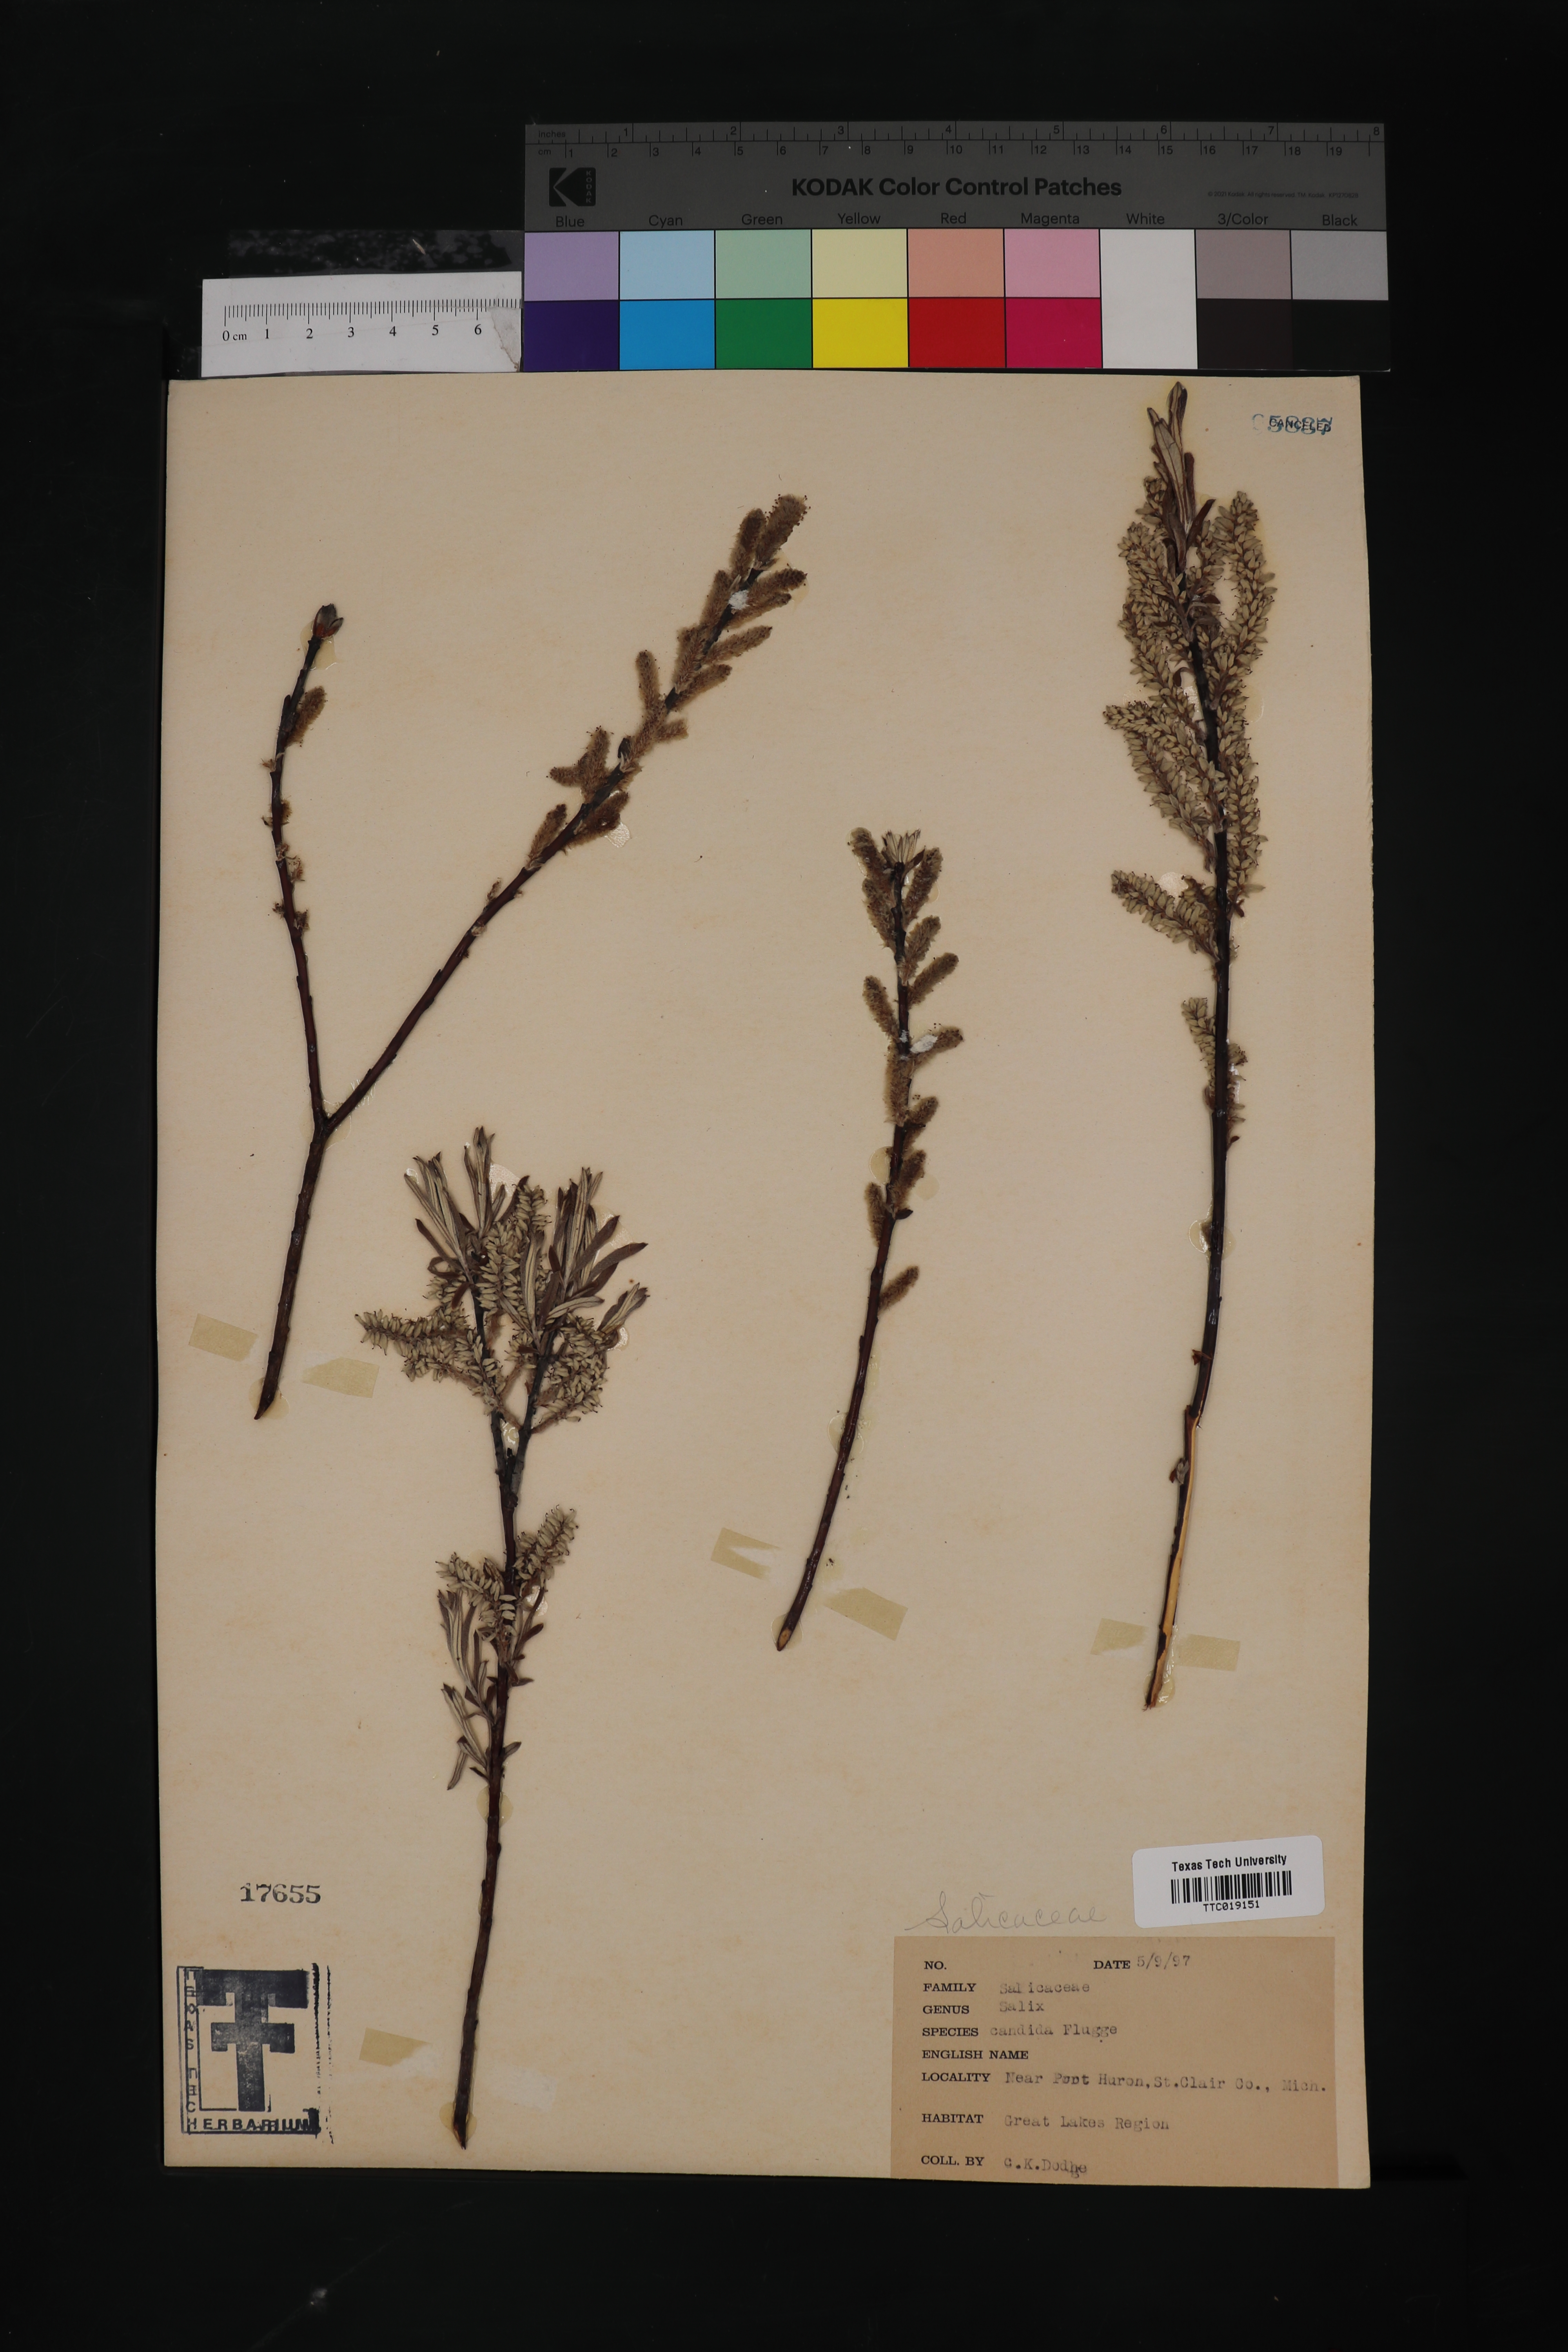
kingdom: Plantae
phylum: Tracheophyta
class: Magnoliopsida
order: Malpighiales
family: Salicaceae
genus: Salix
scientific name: Salix candida
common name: Hoary willow
